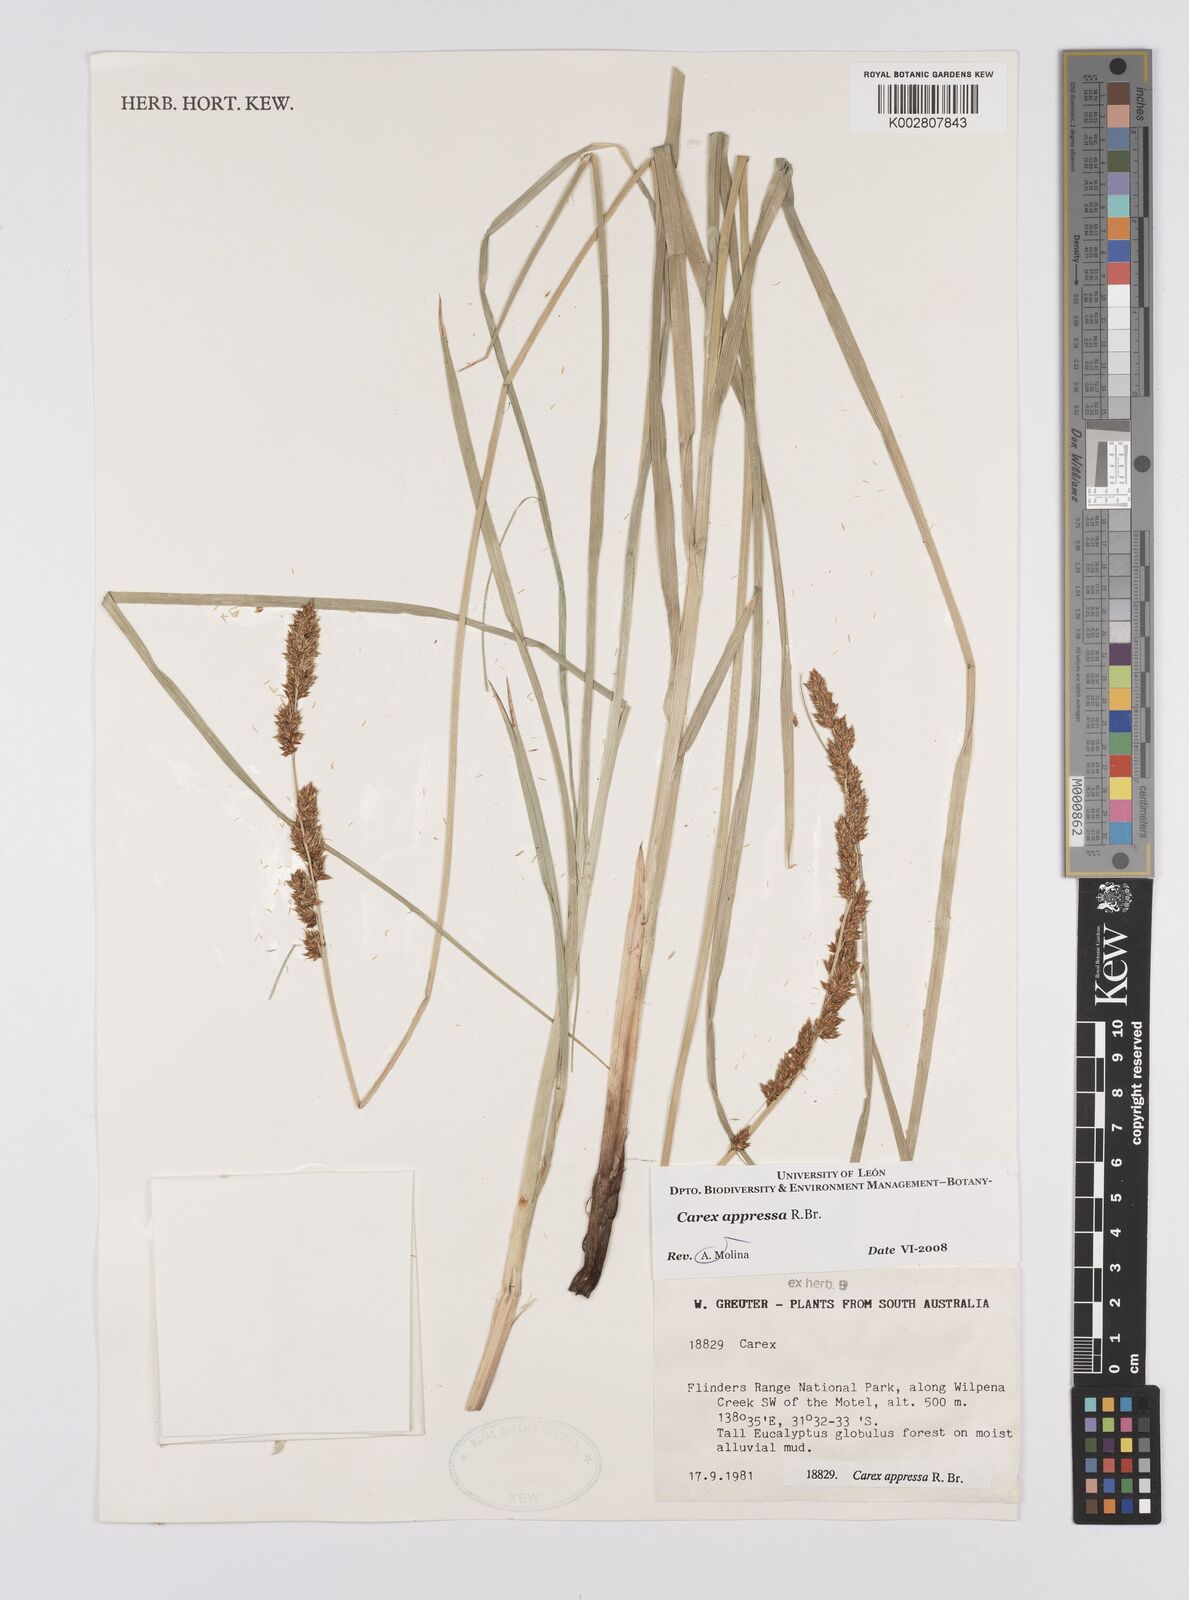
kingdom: Plantae
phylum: Tracheophyta
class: Liliopsida
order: Poales
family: Cyperaceae
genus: Carex
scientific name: Carex appressa
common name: Tussock sedge
